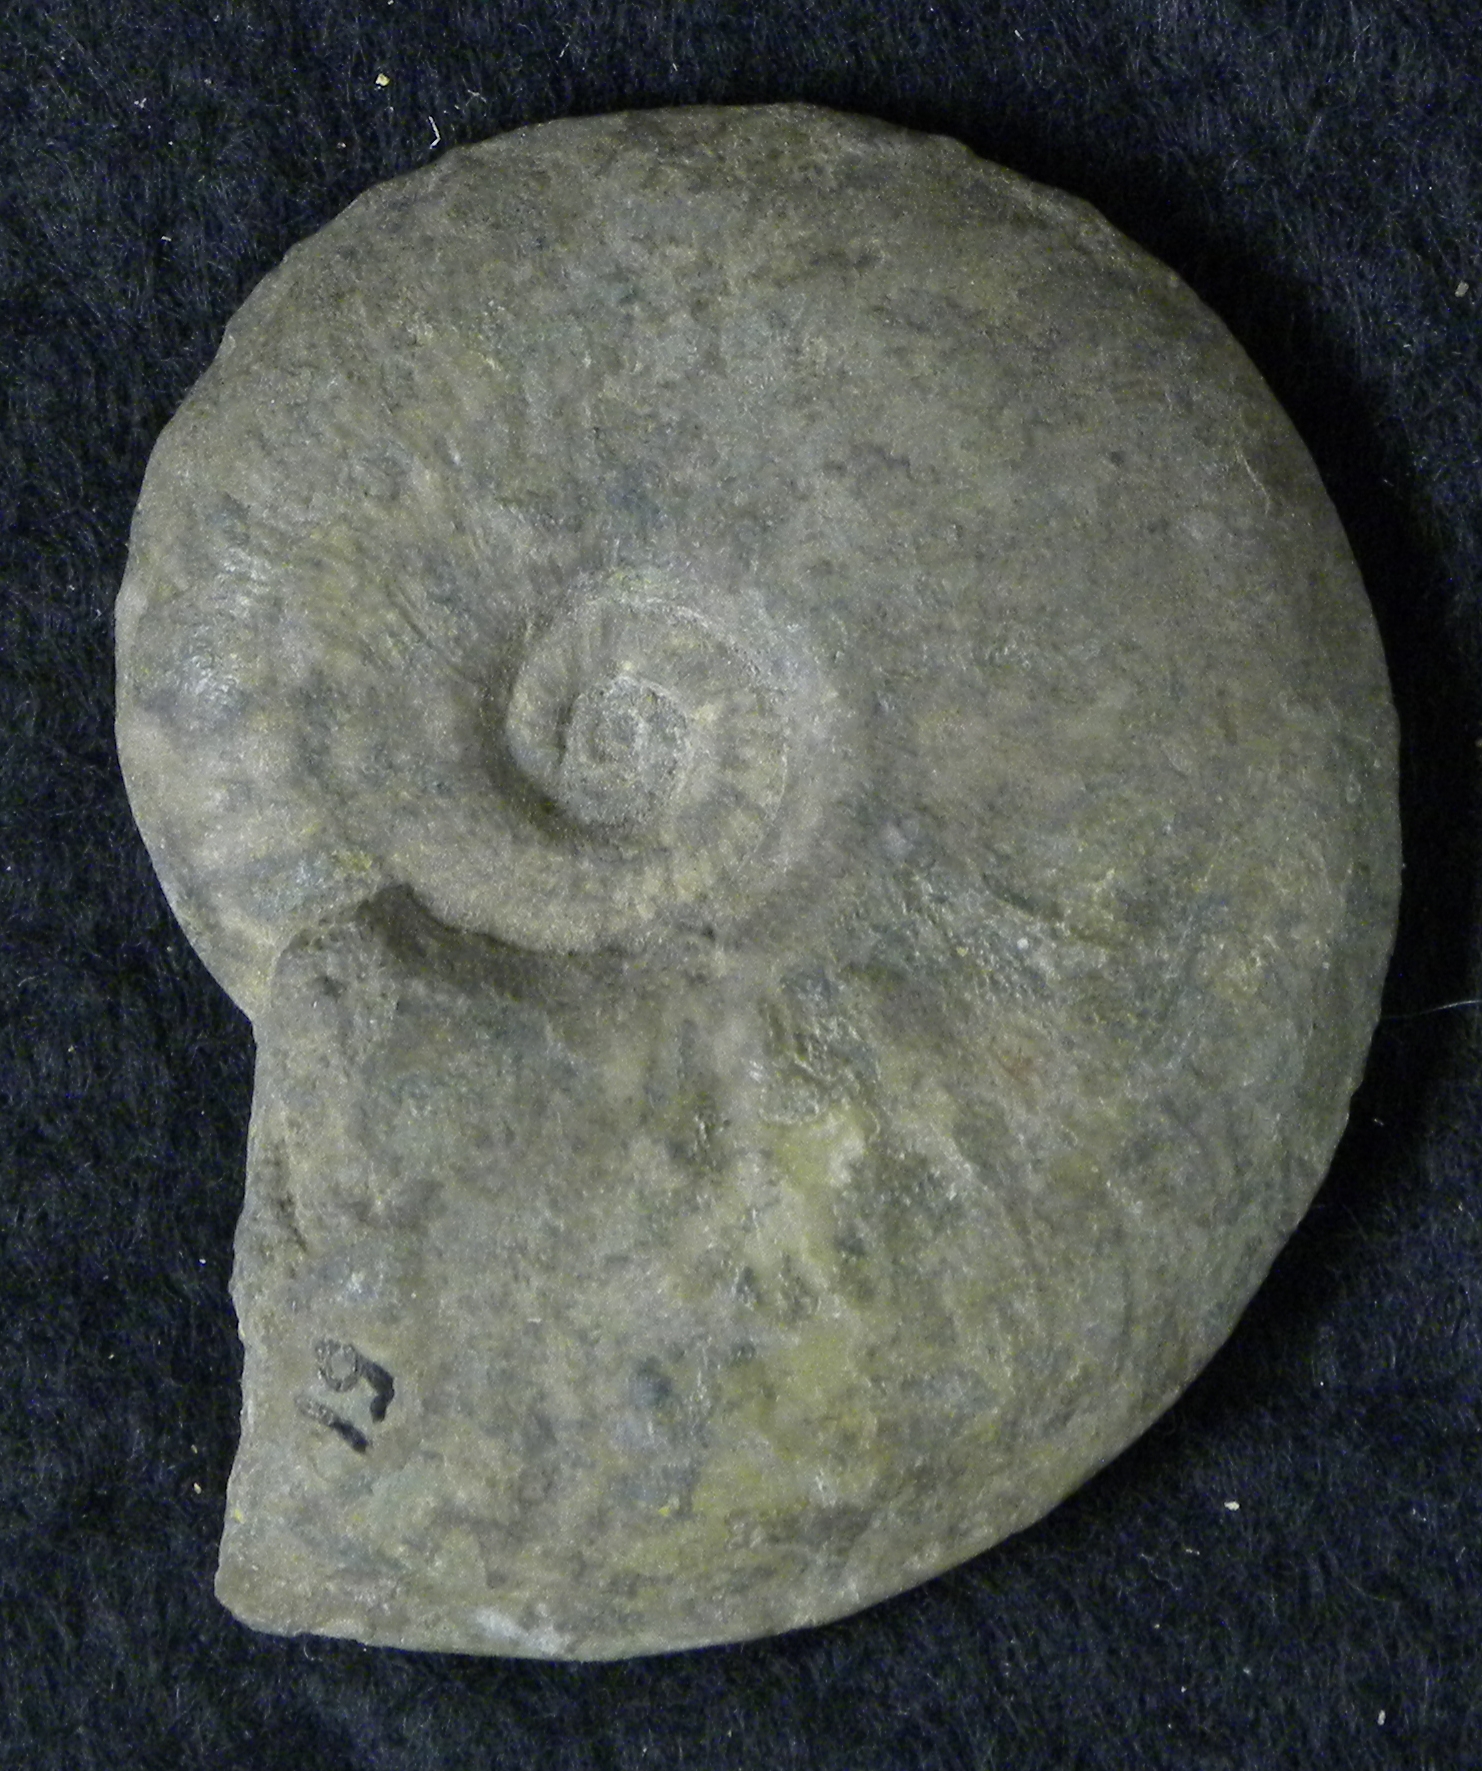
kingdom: Animalia
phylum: Mollusca
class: Cephalopoda
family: Hildoceratidae
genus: Pleydellia
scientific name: Pleydellia buckmani
